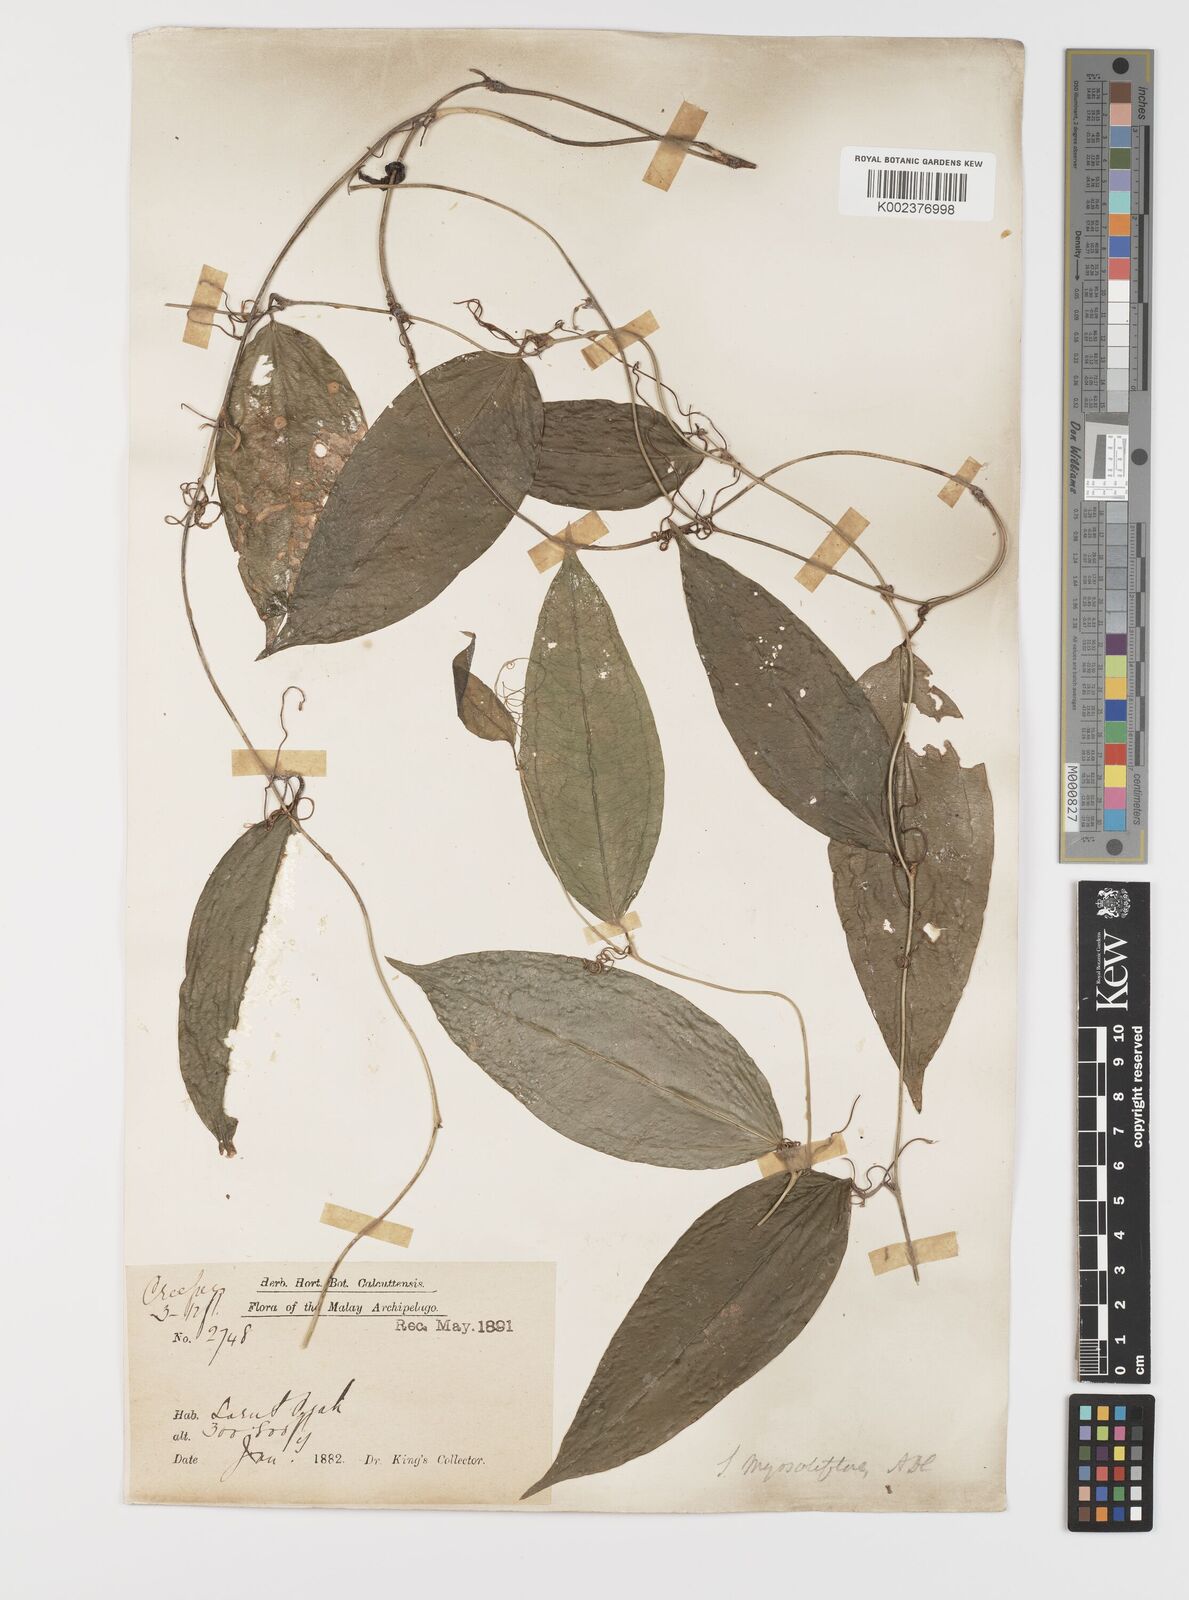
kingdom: Plantae
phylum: Tracheophyta
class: Liliopsida
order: Liliales
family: Smilacaceae
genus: Smilax
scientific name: Smilax myosotiflora
